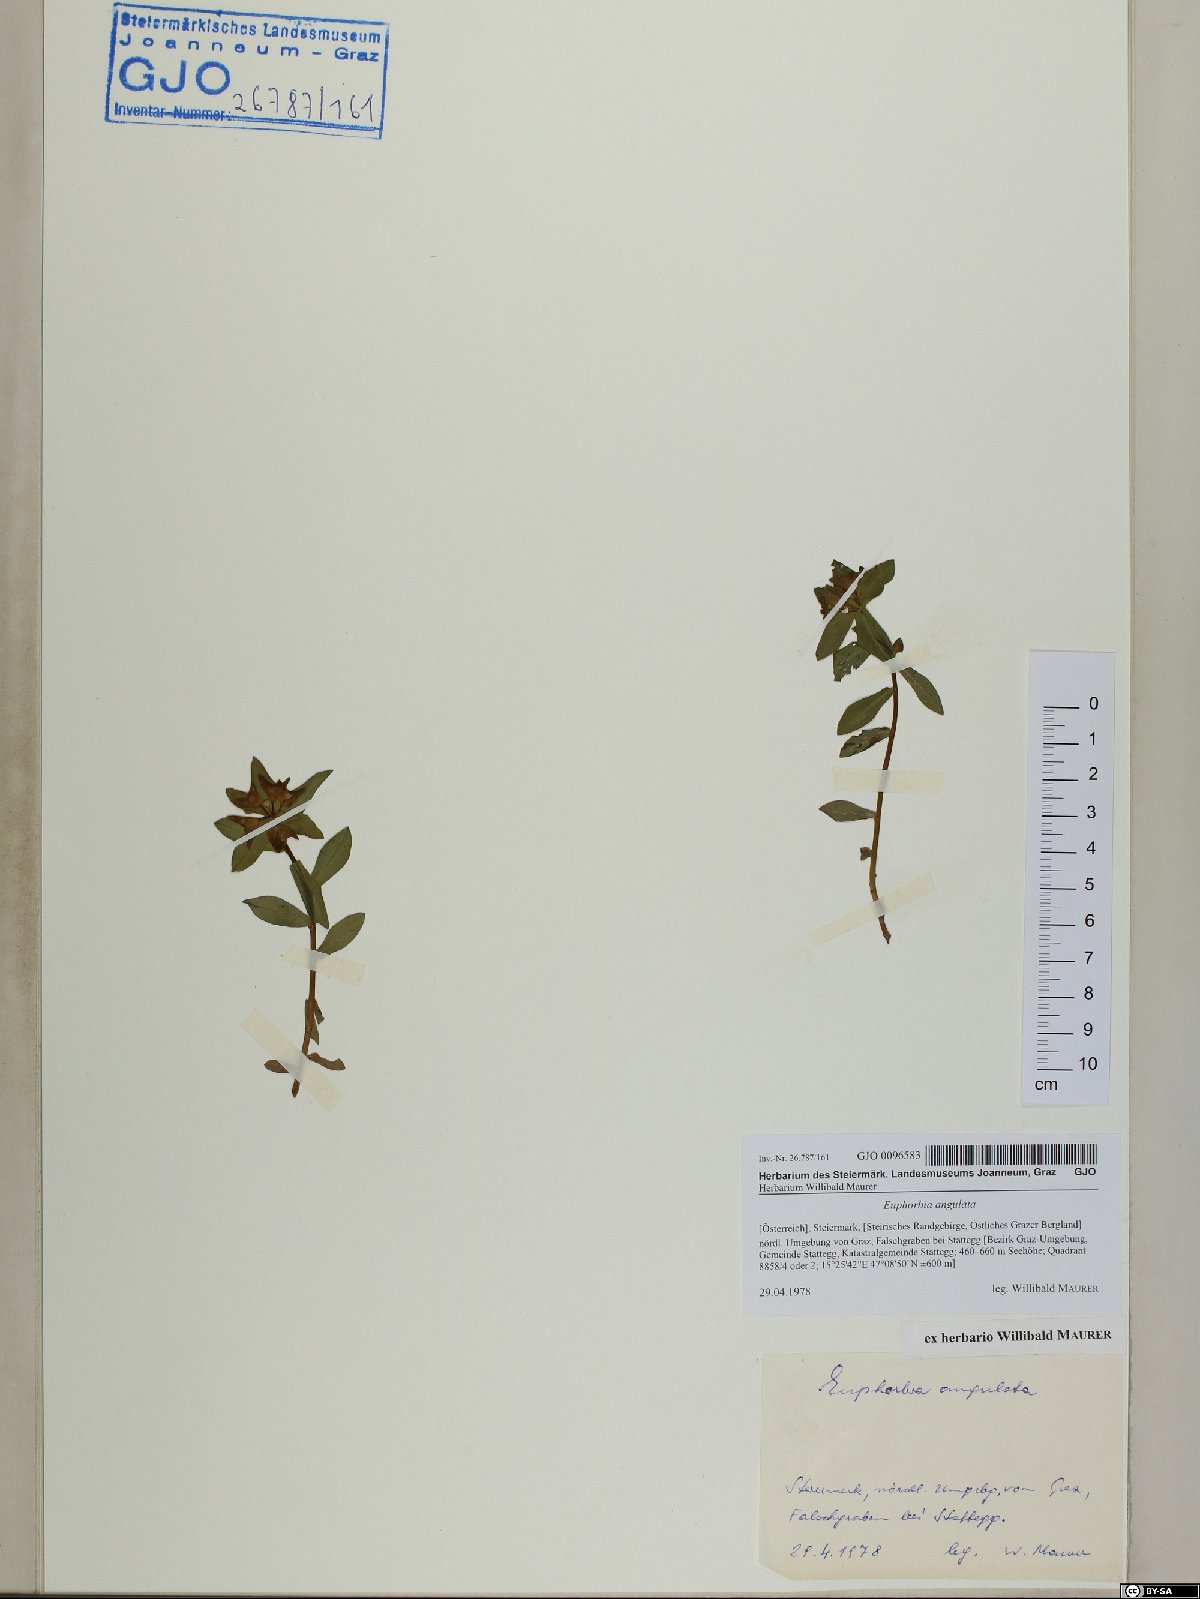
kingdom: Plantae
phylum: Tracheophyta
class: Magnoliopsida
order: Malpighiales
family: Euphorbiaceae
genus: Euphorbia
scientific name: Euphorbia angulata
